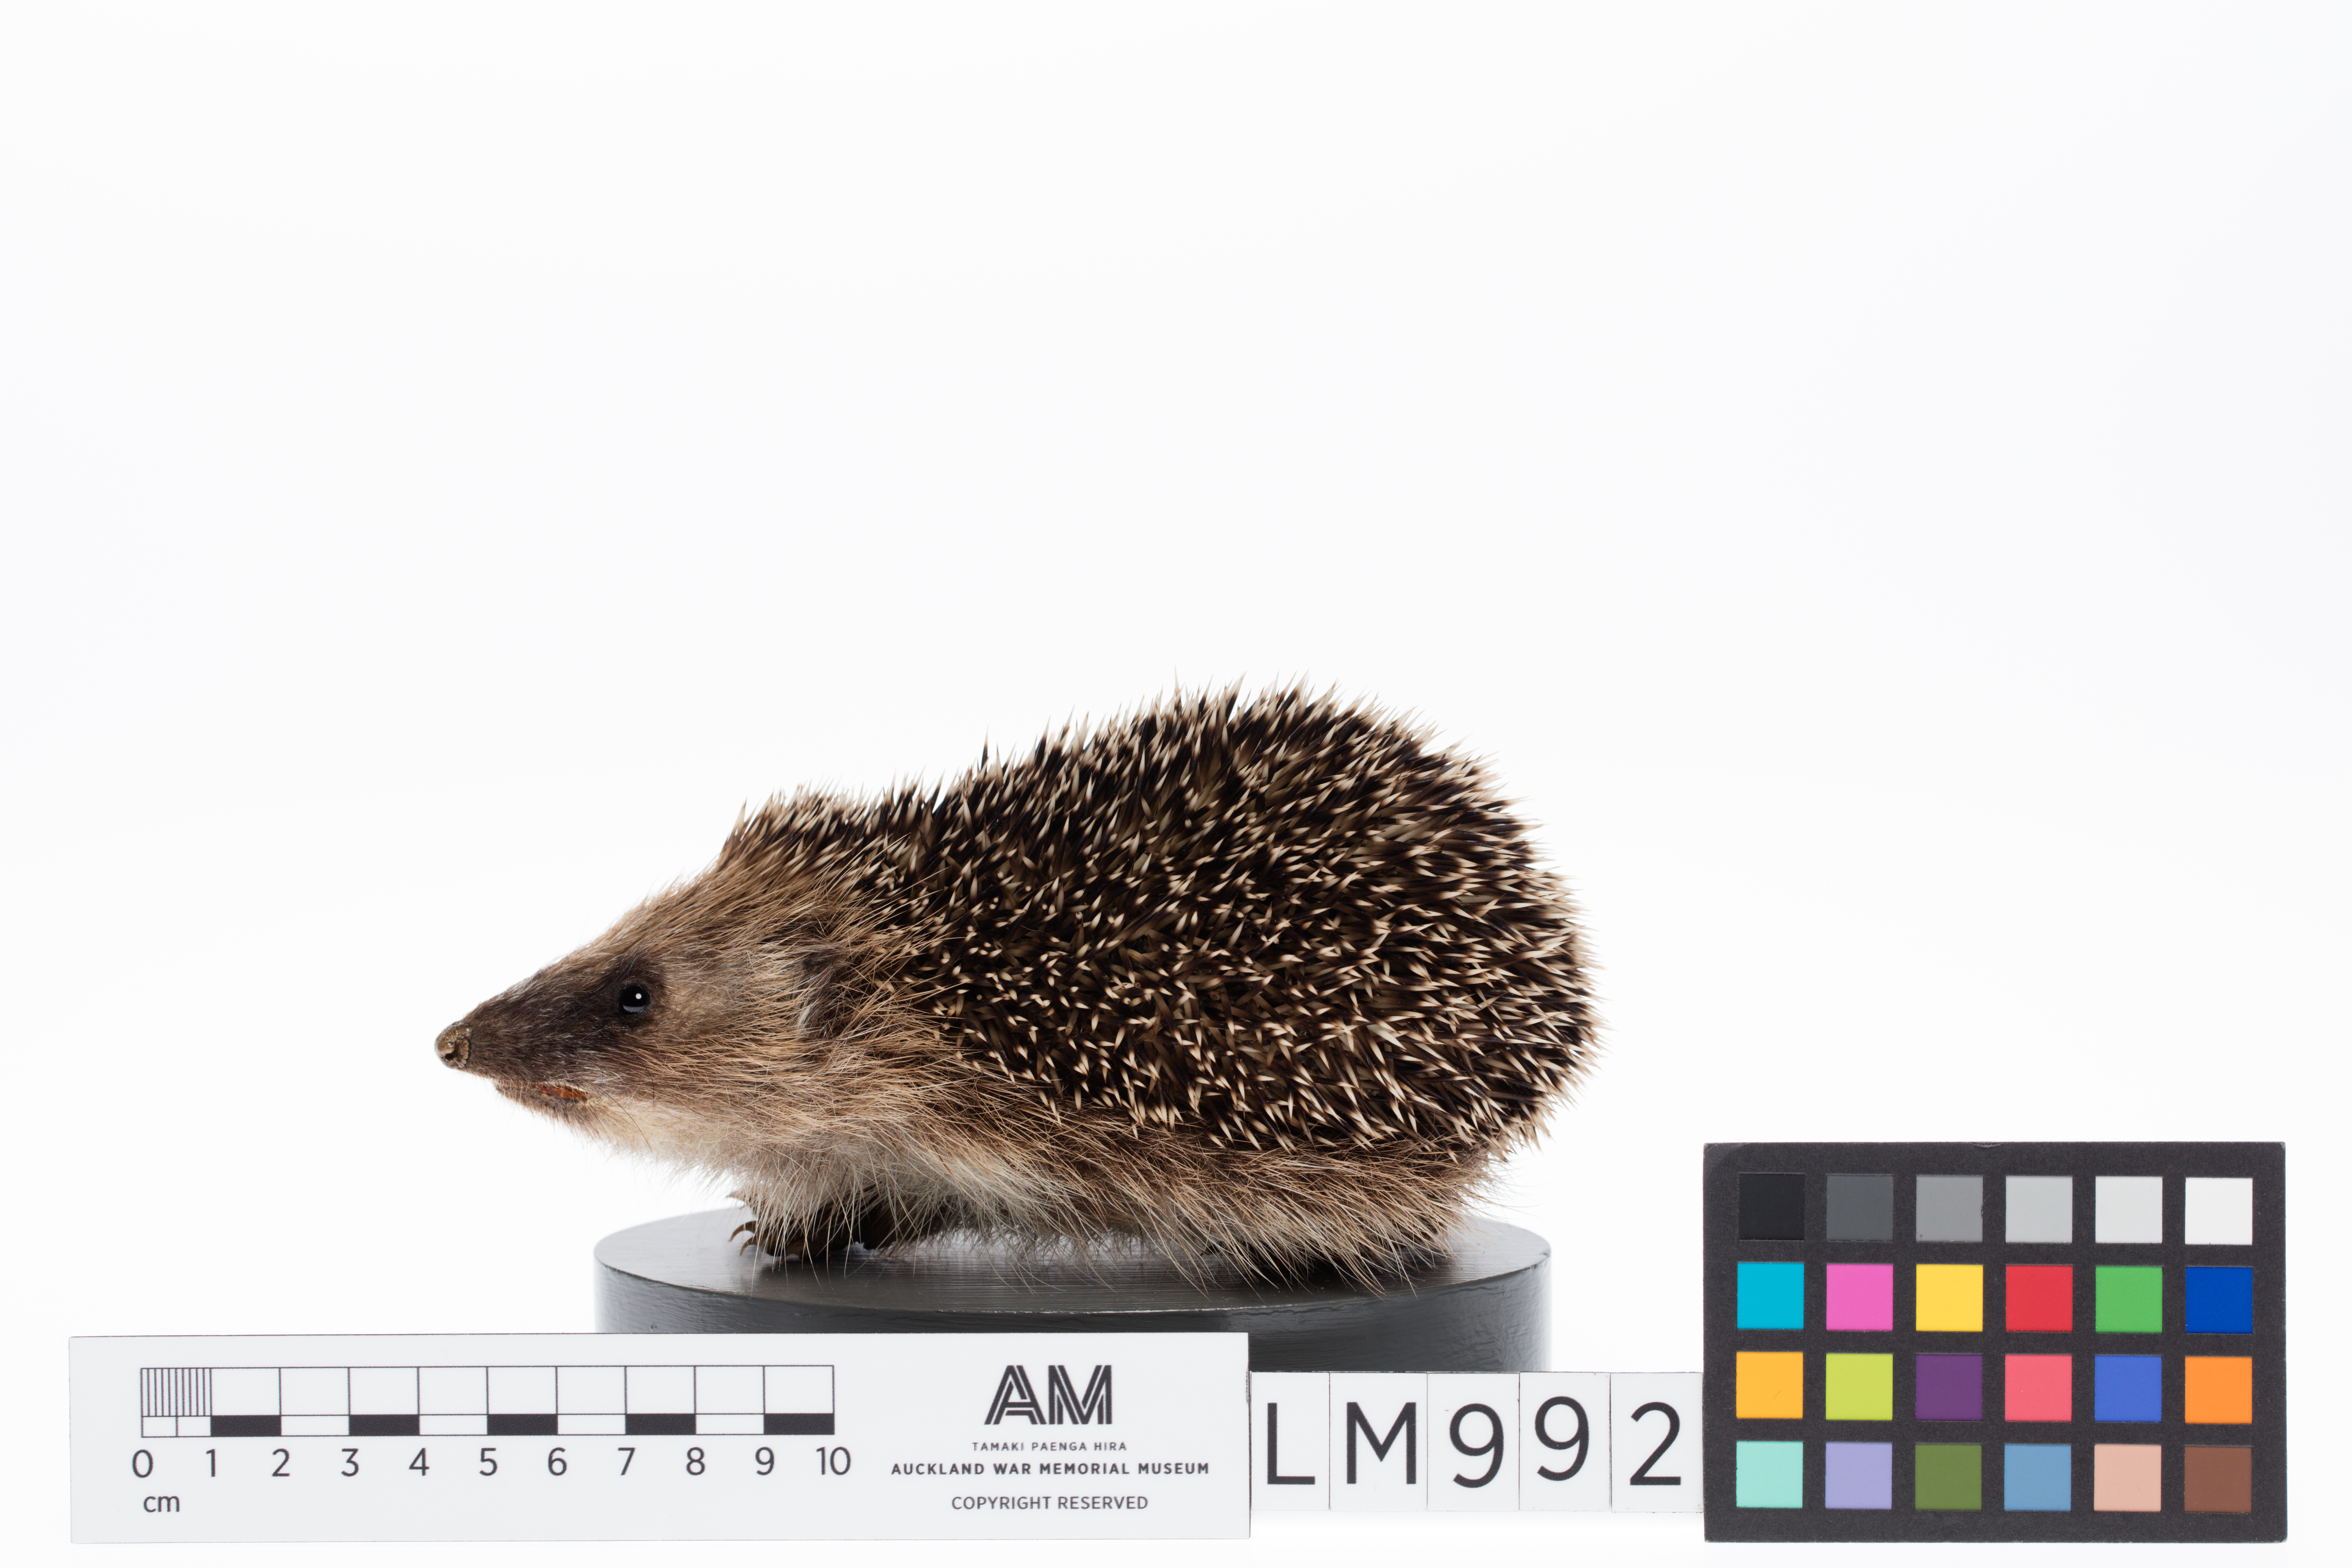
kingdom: Animalia
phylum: Chordata
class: Mammalia
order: Erinaceomorpha
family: Erinaceidae
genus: Erinaceus
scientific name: Erinaceus europaeus
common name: West european hedgehog
